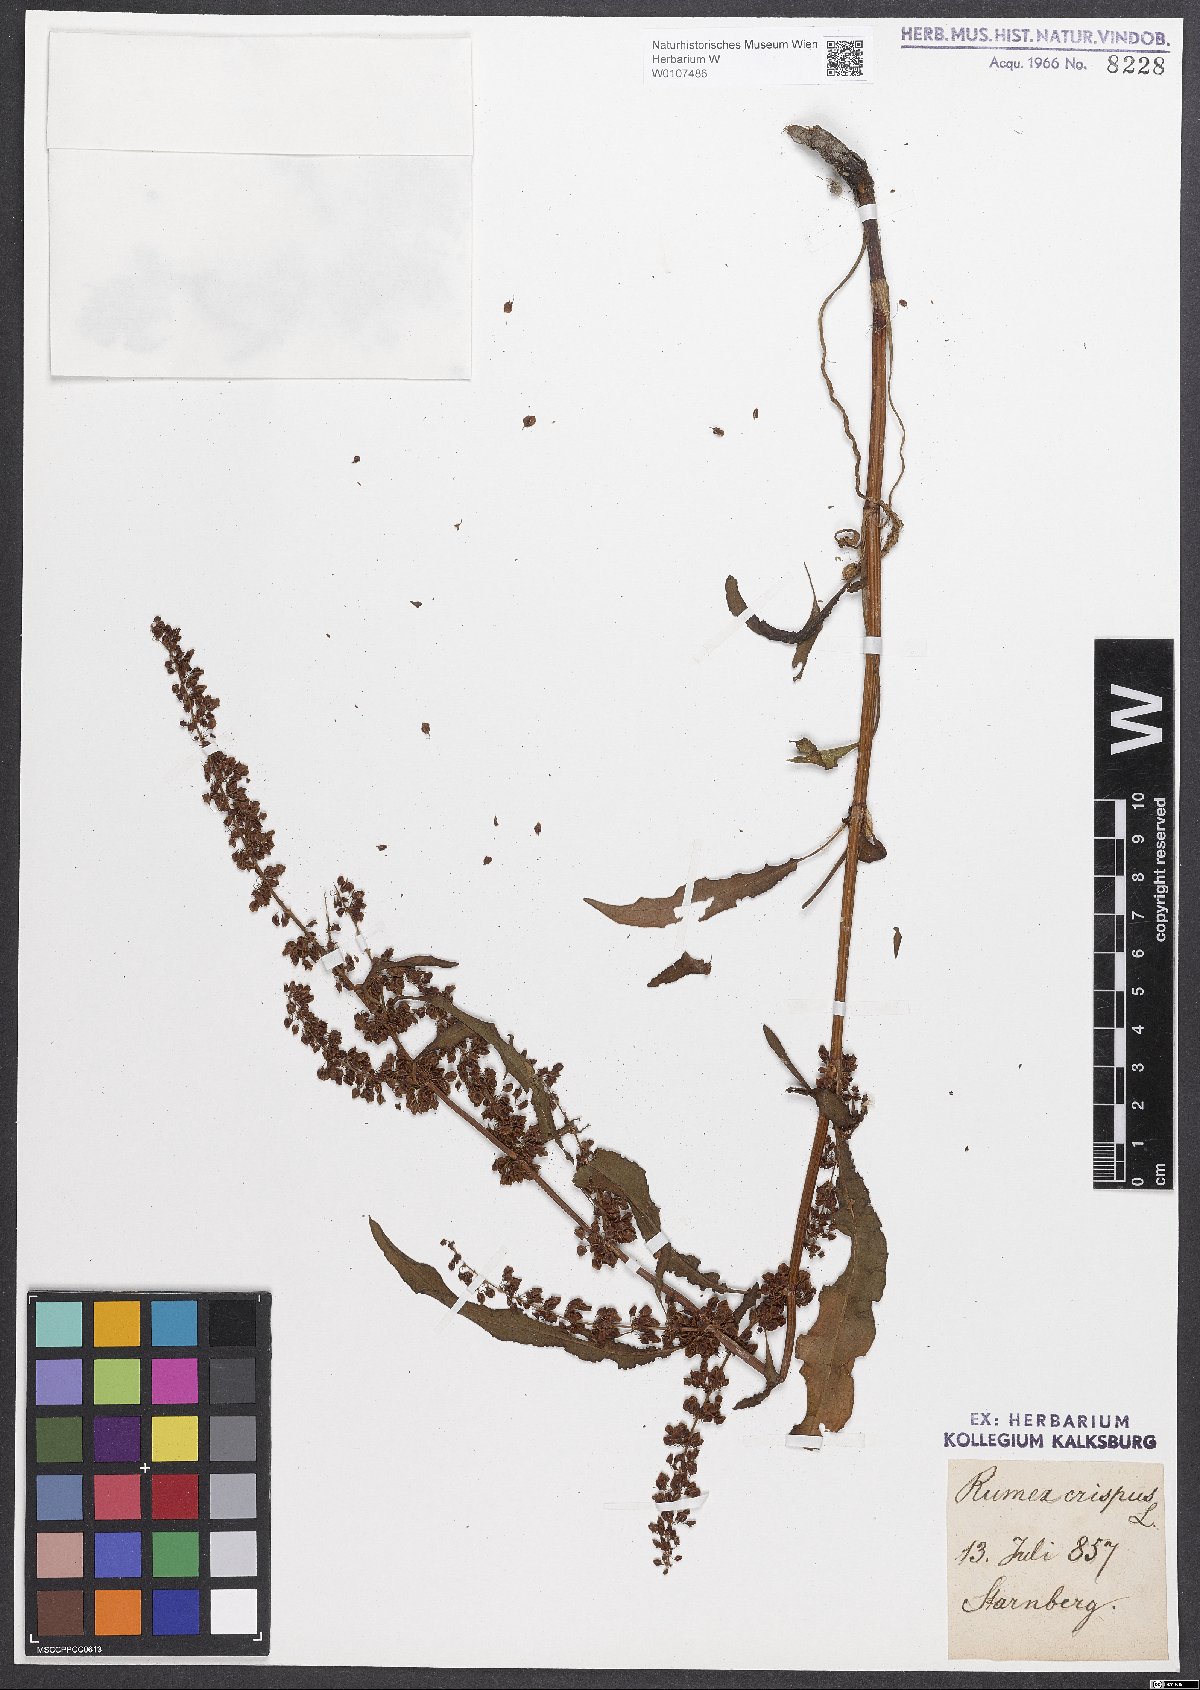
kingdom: Plantae
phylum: Tracheophyta
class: Magnoliopsida
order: Caryophyllales
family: Polygonaceae
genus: Rumex
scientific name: Rumex crispus
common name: Curled dock
